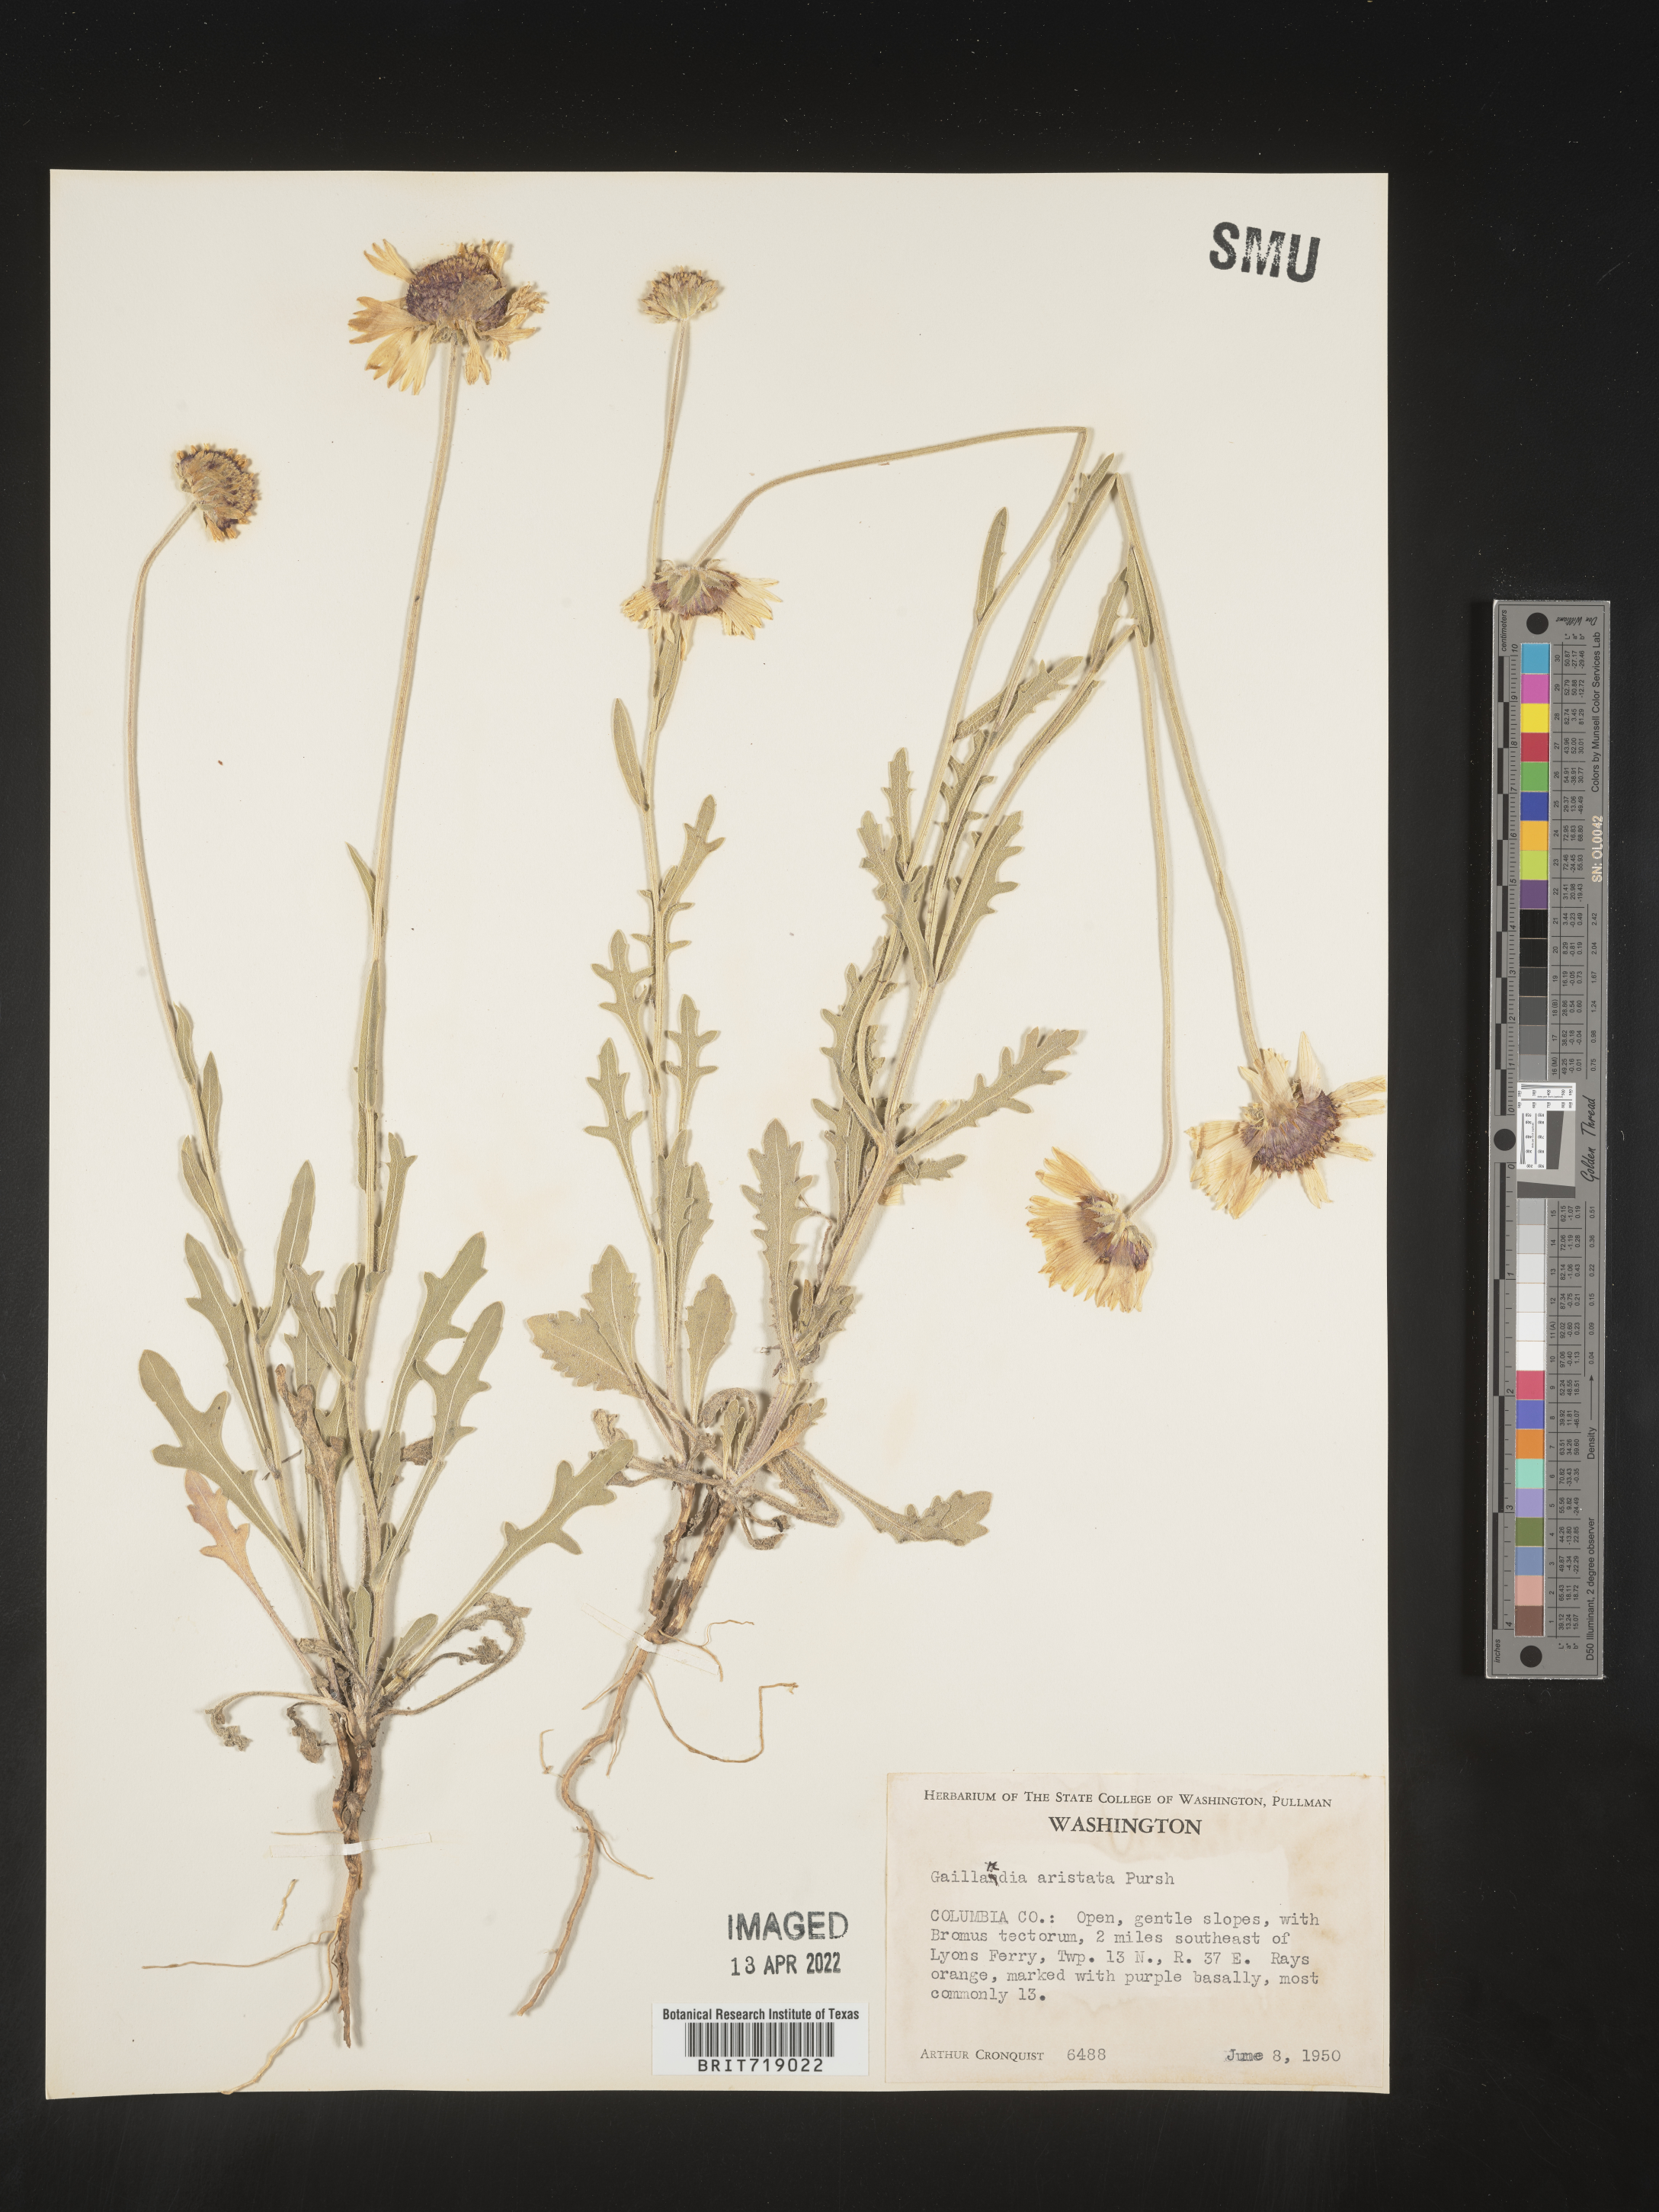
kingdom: Plantae
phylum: Tracheophyta
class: Magnoliopsida
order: Asterales
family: Asteraceae
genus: Gaillardia
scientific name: Gaillardia aristata
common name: Blanket-flower
